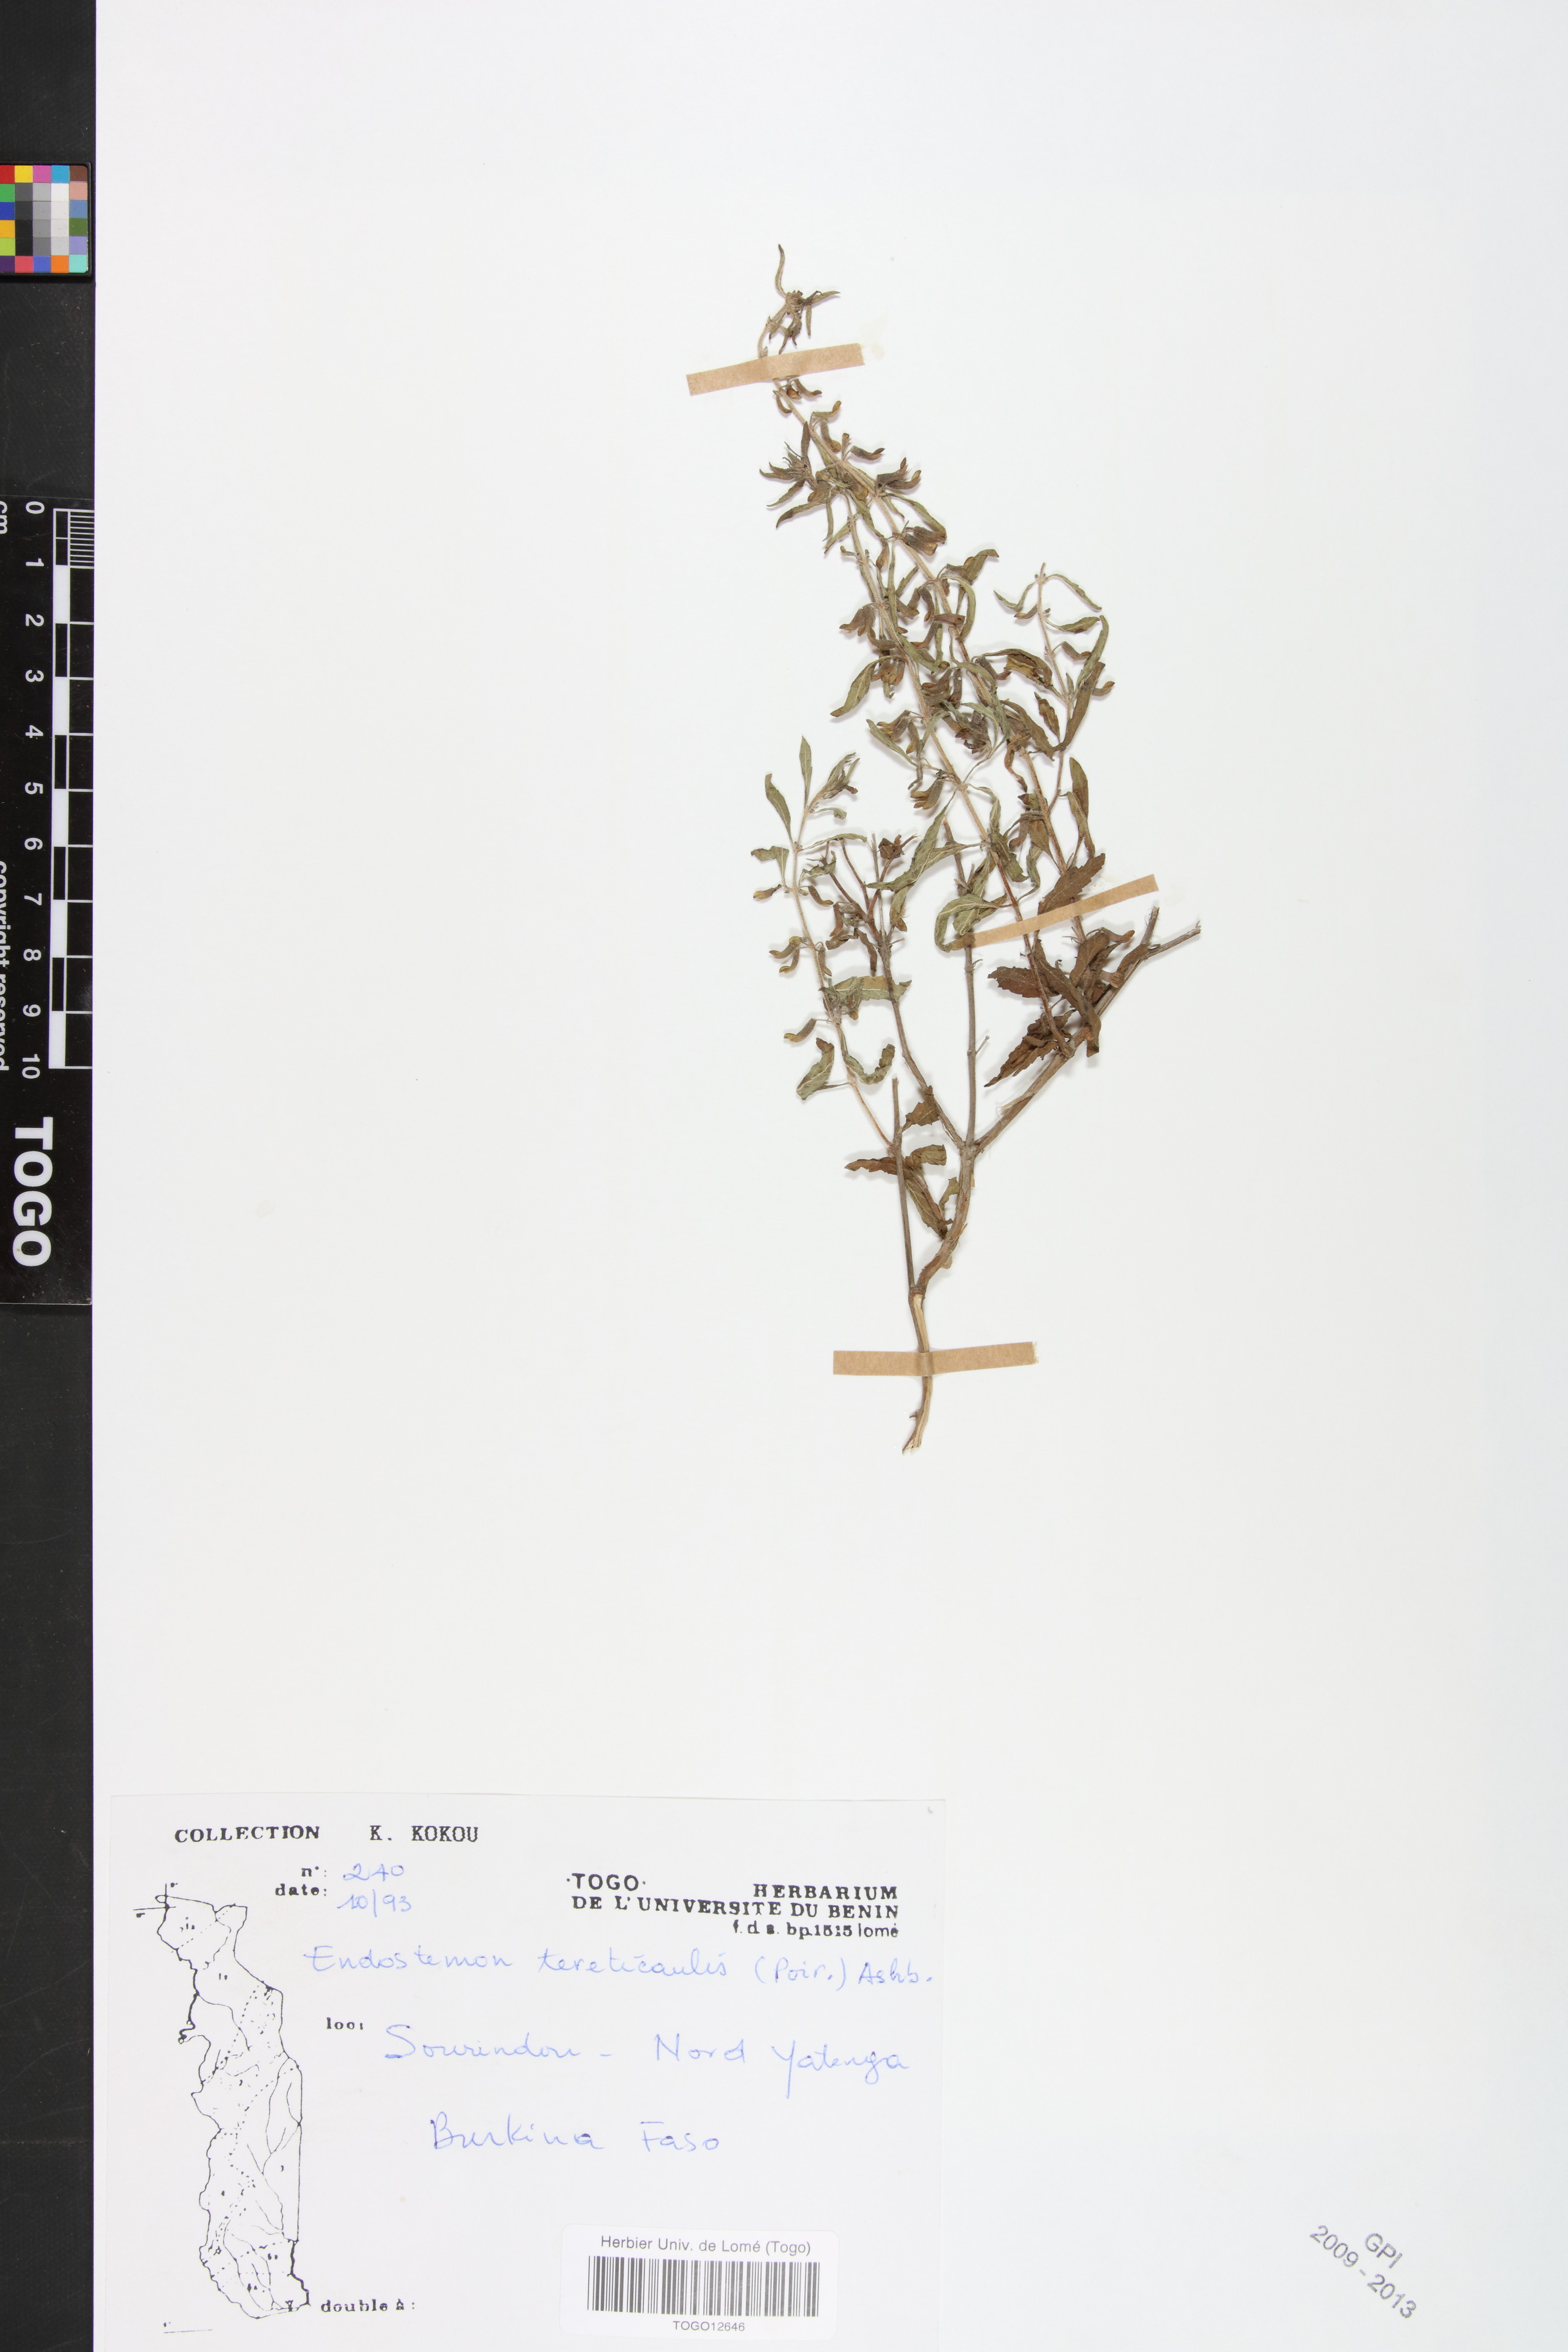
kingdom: Plantae
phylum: Tracheophyta
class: Magnoliopsida
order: Lamiales
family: Lamiaceae
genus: Endostemon
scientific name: Endostemon tereticaulis
